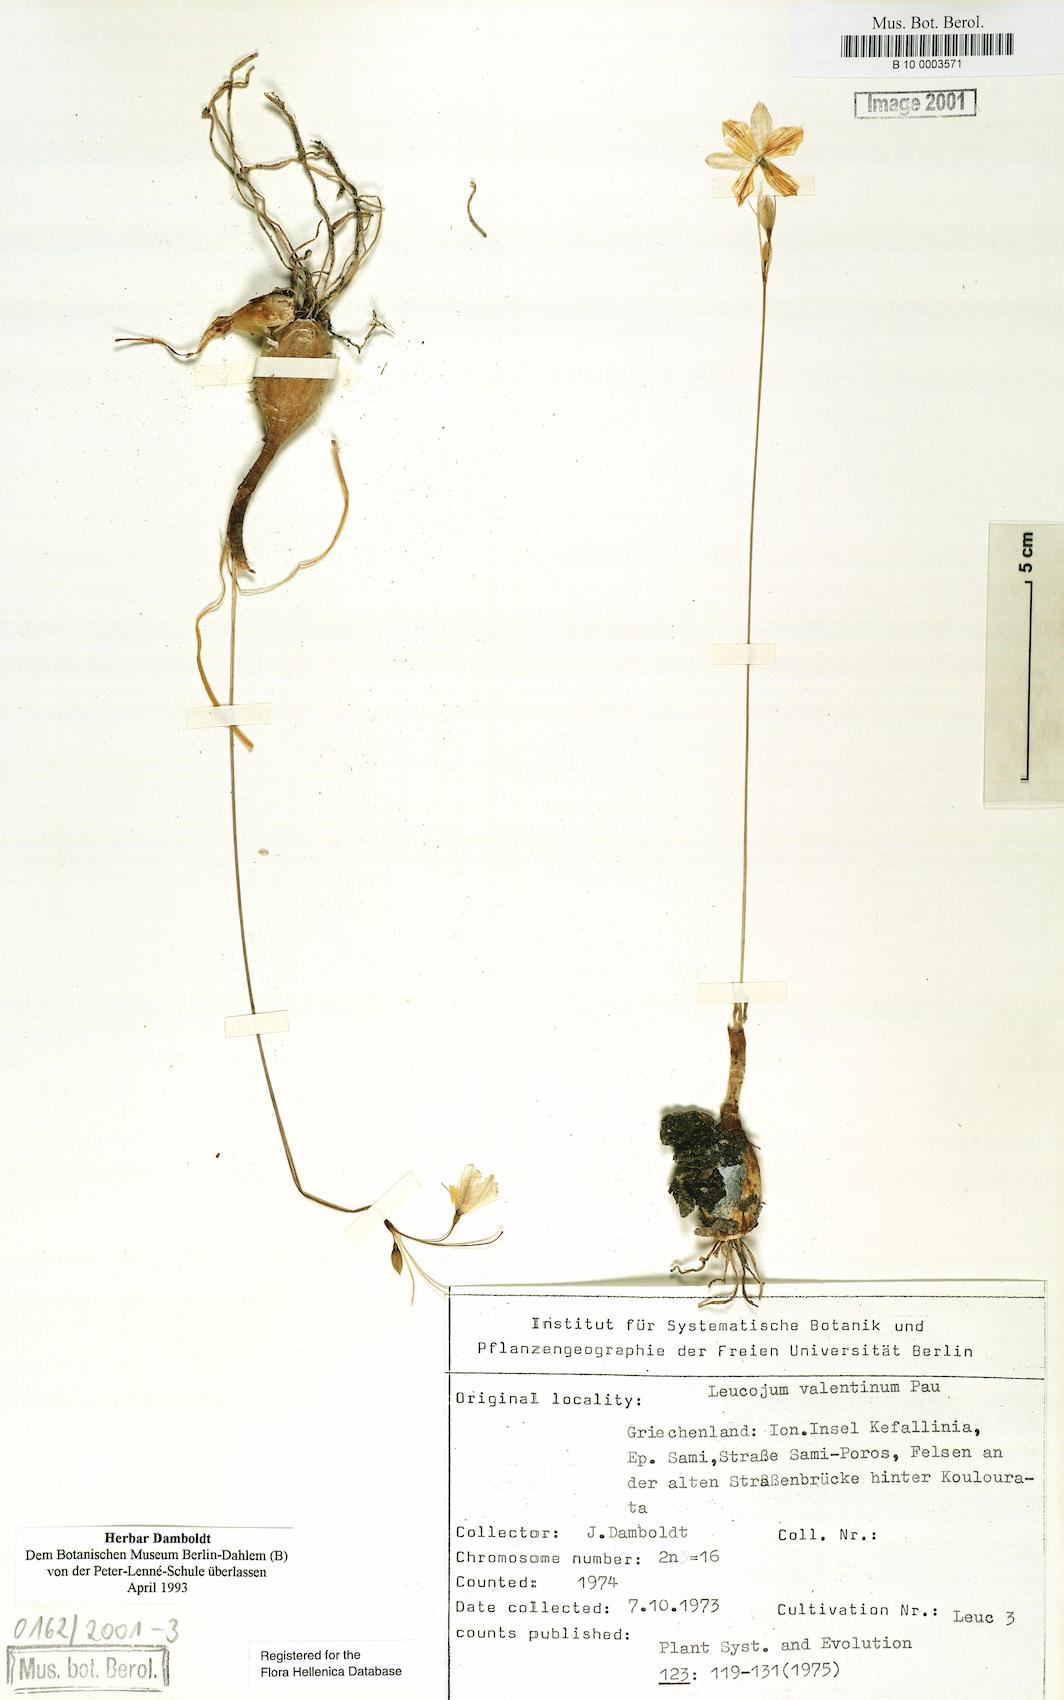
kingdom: Plantae
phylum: Tracheophyta
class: Liliopsida
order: Asparagales
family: Amaryllidaceae
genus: Acis
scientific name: Acis valentina
